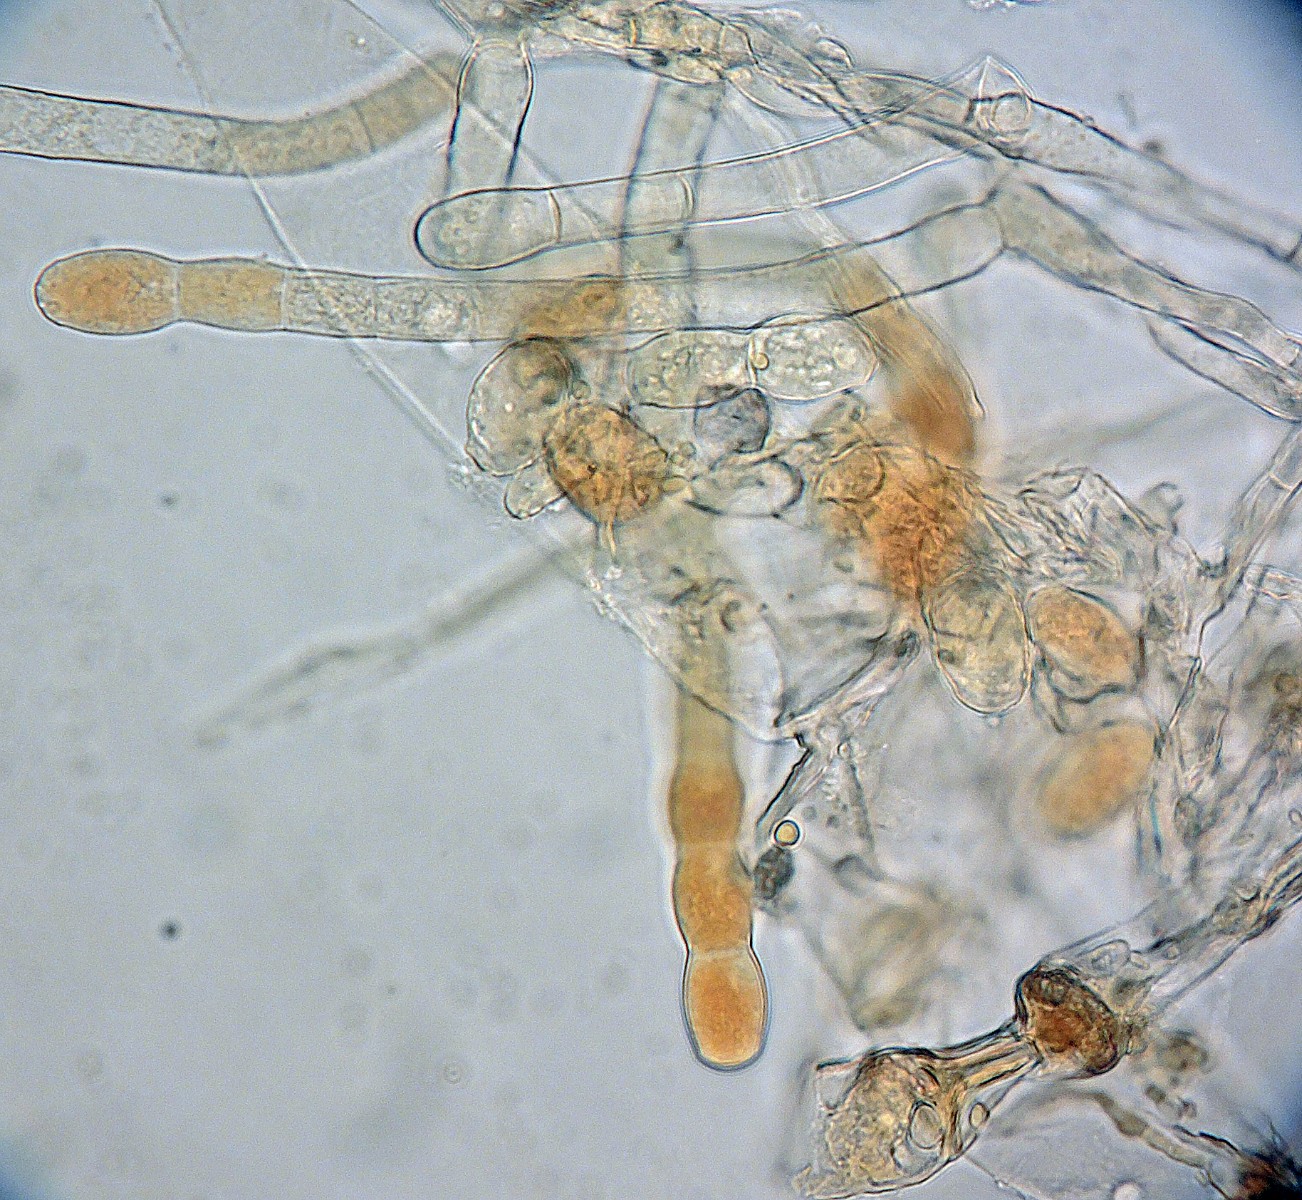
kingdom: Fungi
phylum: Ascomycota
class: Leotiomycetes
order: Helotiales
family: Erysiphaceae
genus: Podosphaera
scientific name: Podosphaera erigerontis-canadensis
